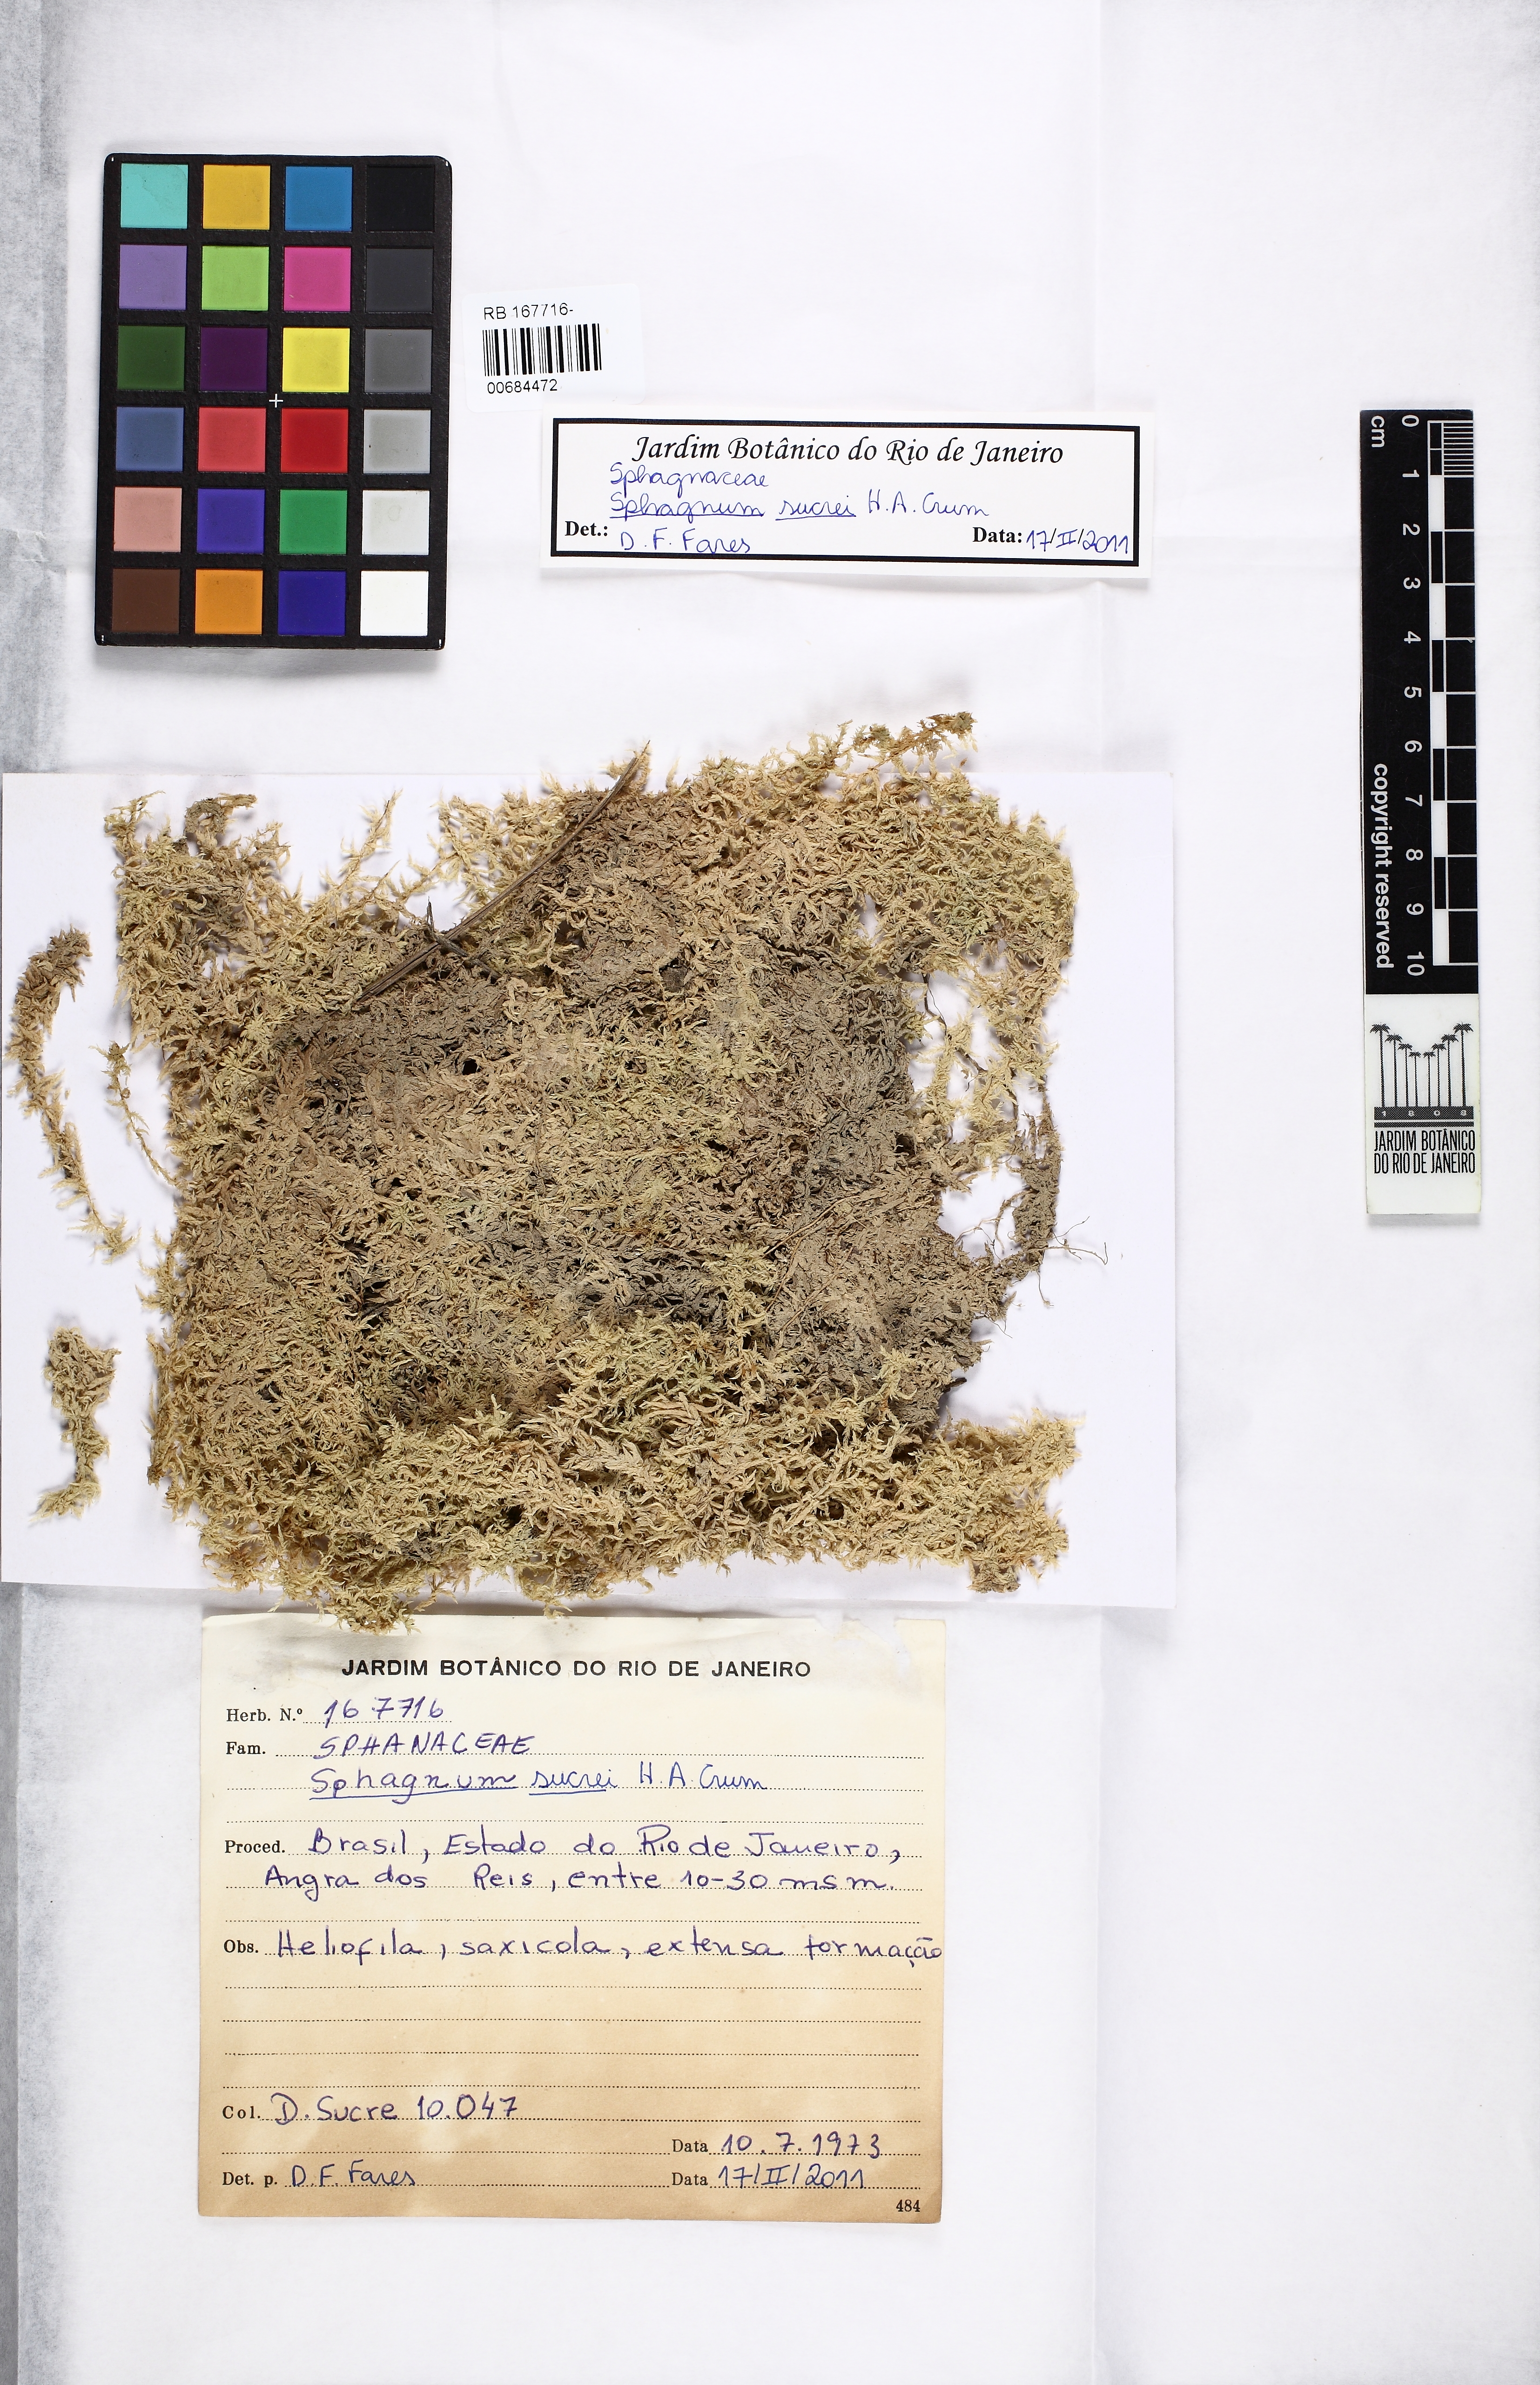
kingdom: Plantae
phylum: Bryophyta
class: Sphagnopsida
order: Sphagnales
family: Sphagnaceae
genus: Sphagnum
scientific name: Sphagnum sucrei
